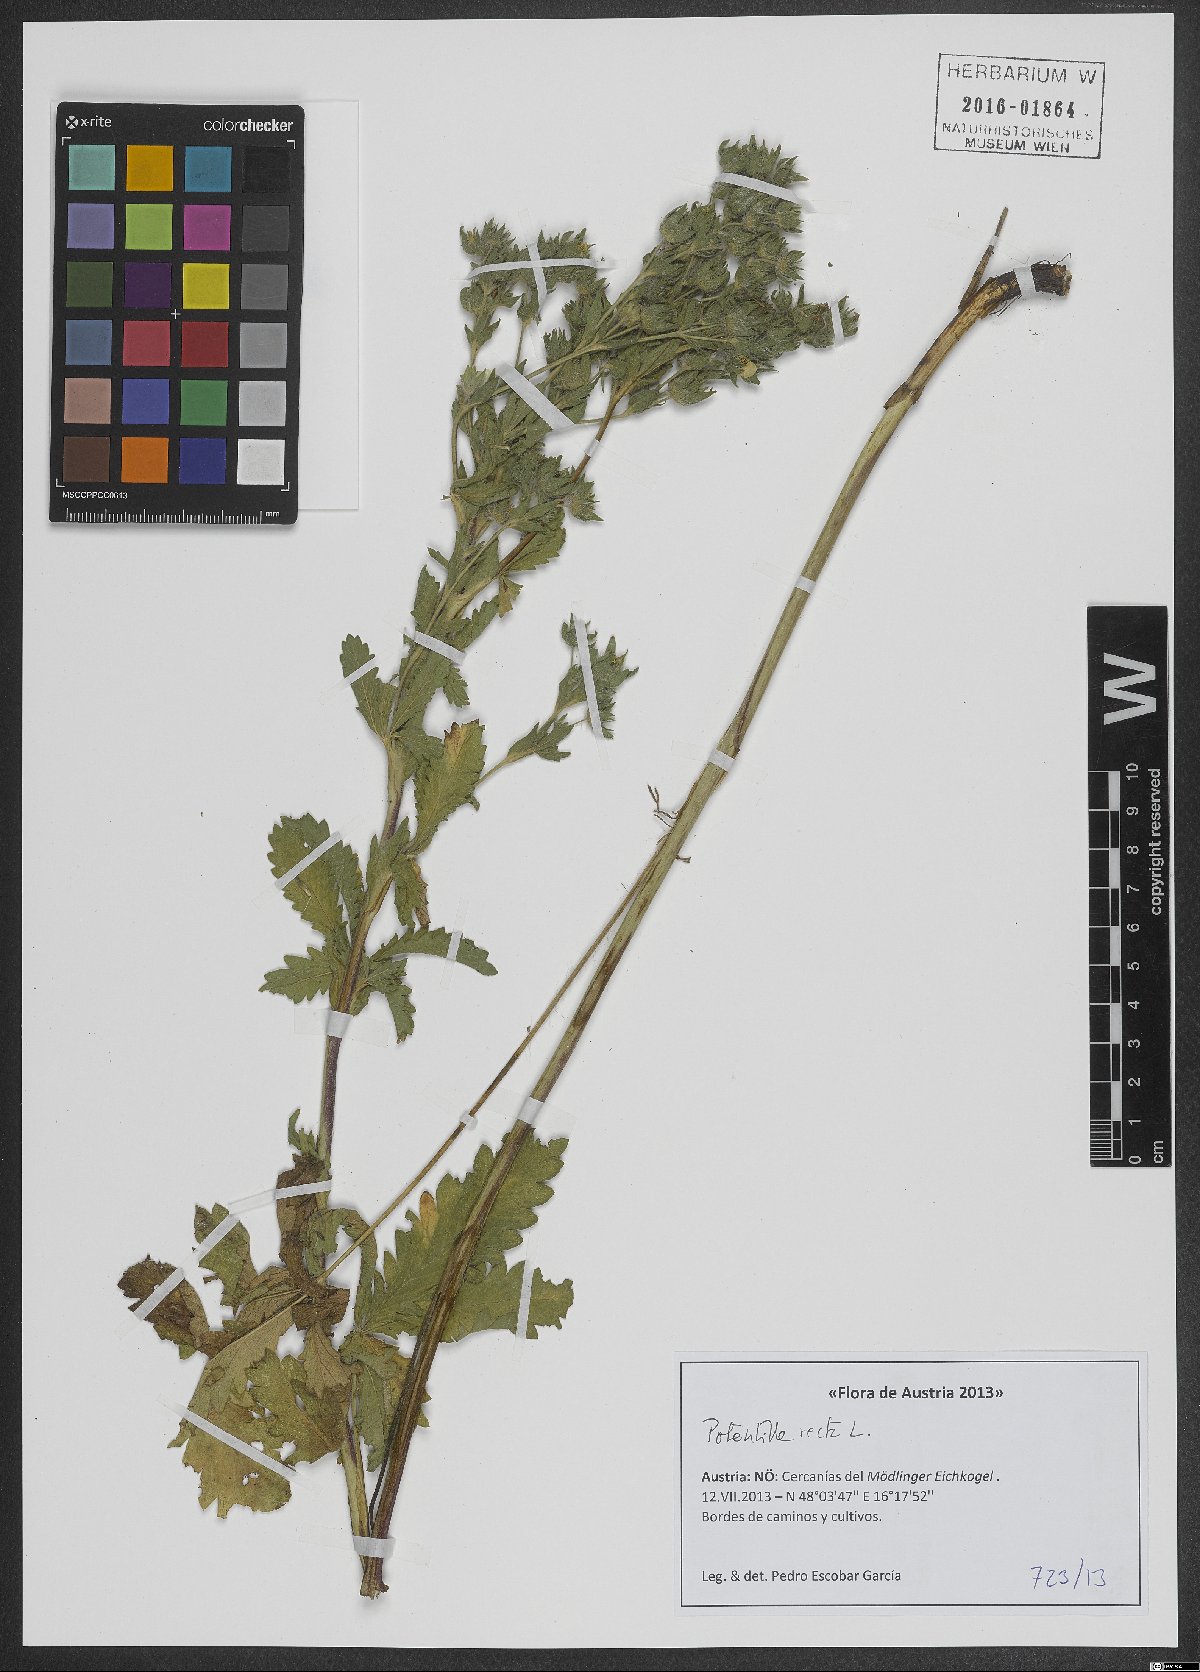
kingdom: Plantae
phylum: Tracheophyta
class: Magnoliopsida
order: Rosales
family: Rosaceae
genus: Potentilla
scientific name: Potentilla recta
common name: Sulphur cinquefoil
